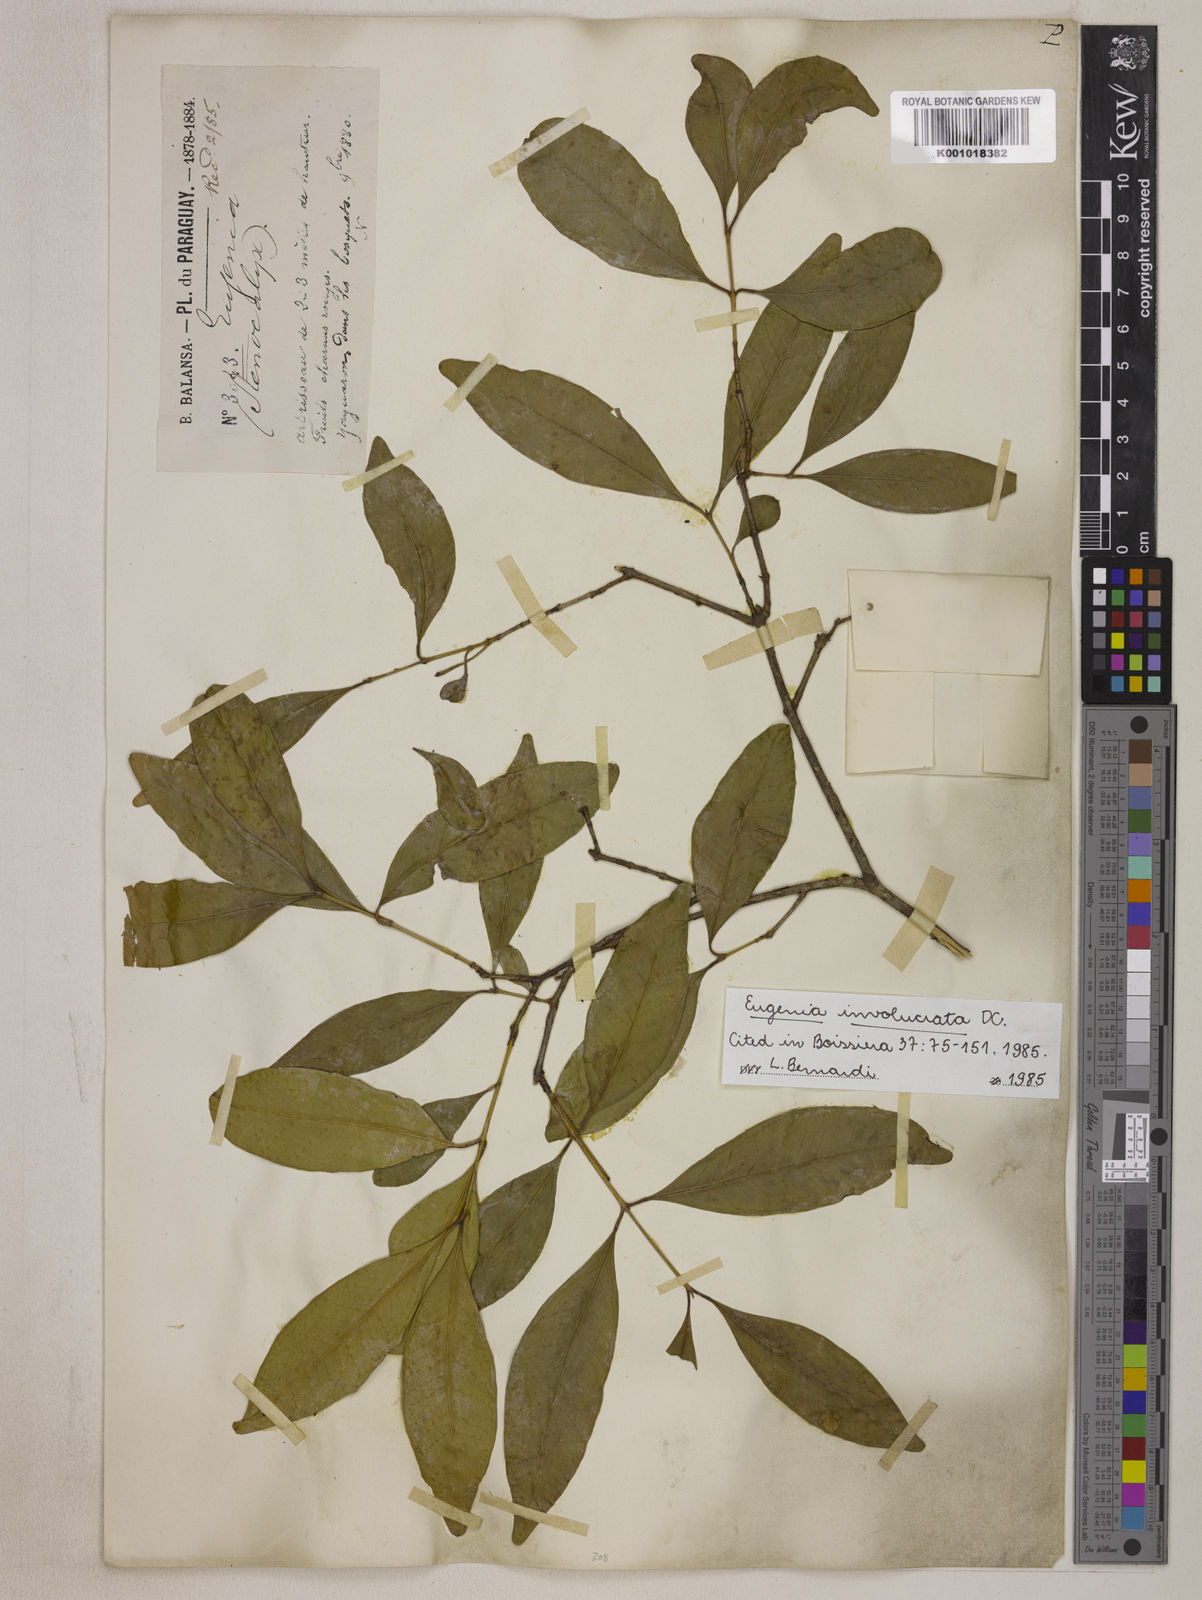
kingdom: Plantae
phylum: Tracheophyta
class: Magnoliopsida
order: Myrtales
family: Myrtaceae
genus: Eugenia
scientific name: Eugenia involucrata
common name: Cherry-of-the-rio grande
